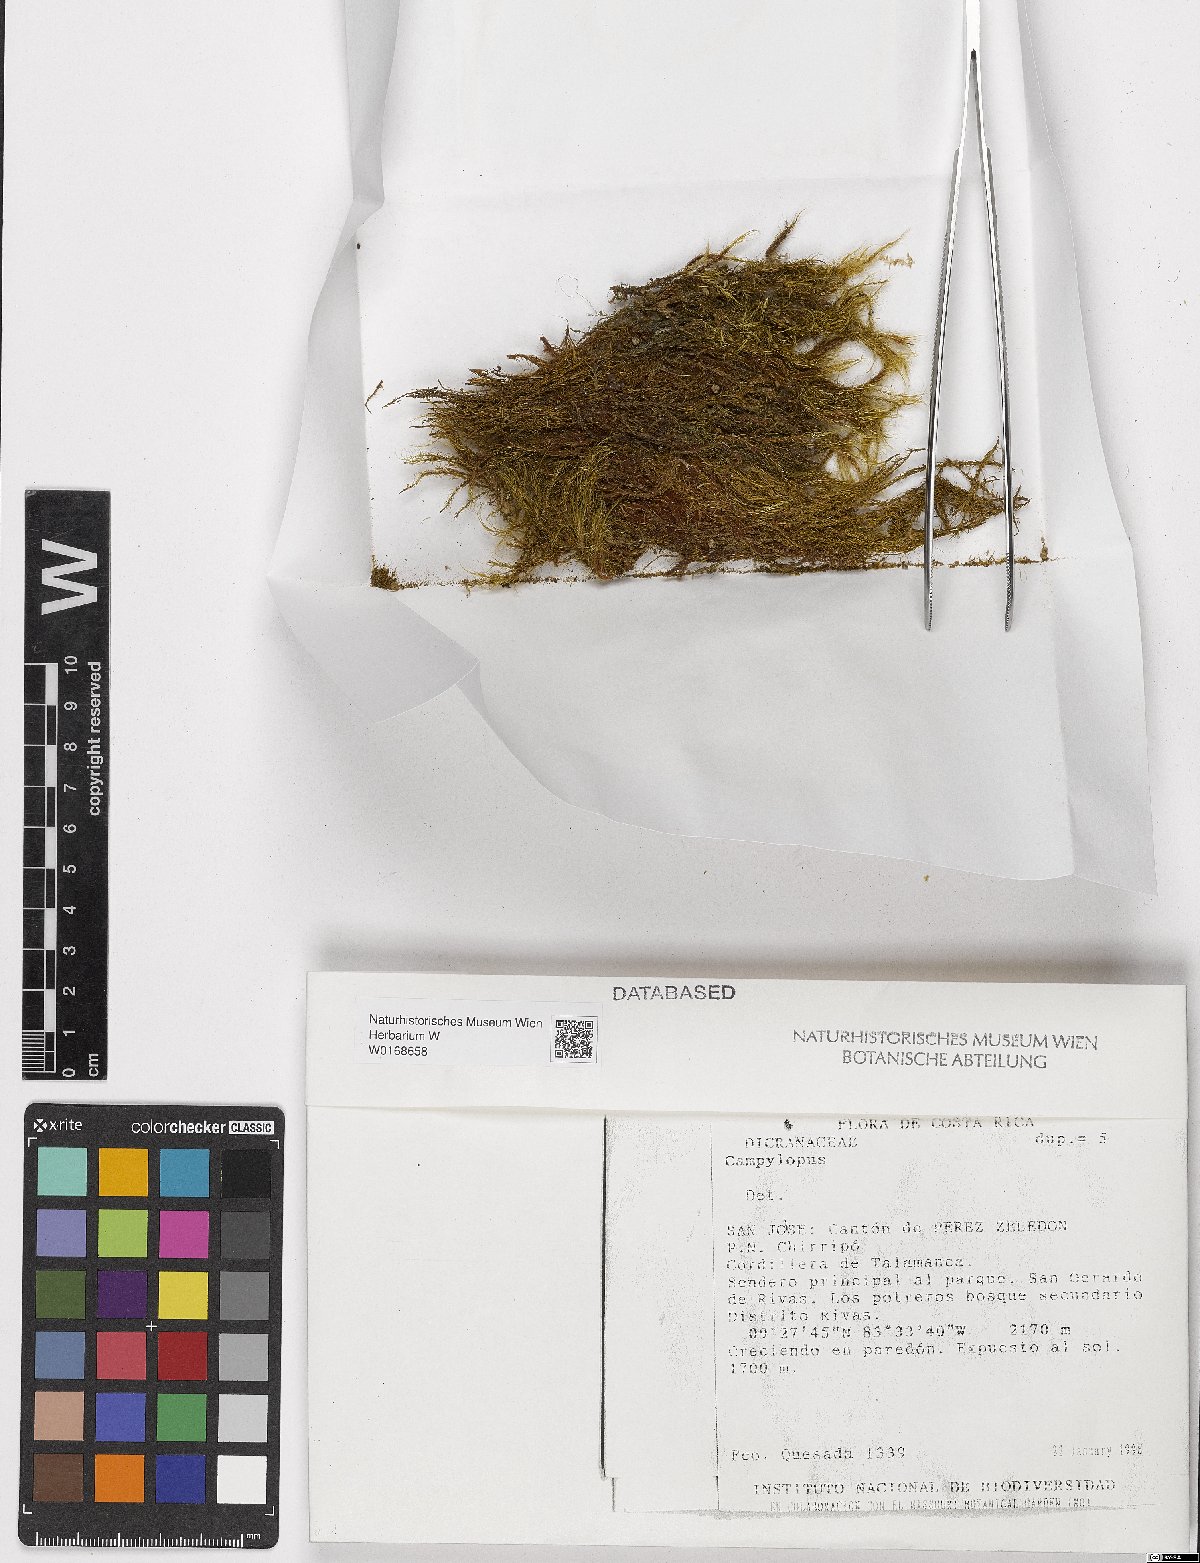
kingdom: Plantae
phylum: Bryophyta
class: Bryopsida
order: Dicranales
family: Leucobryaceae
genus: Campylopus
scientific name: Campylopus
